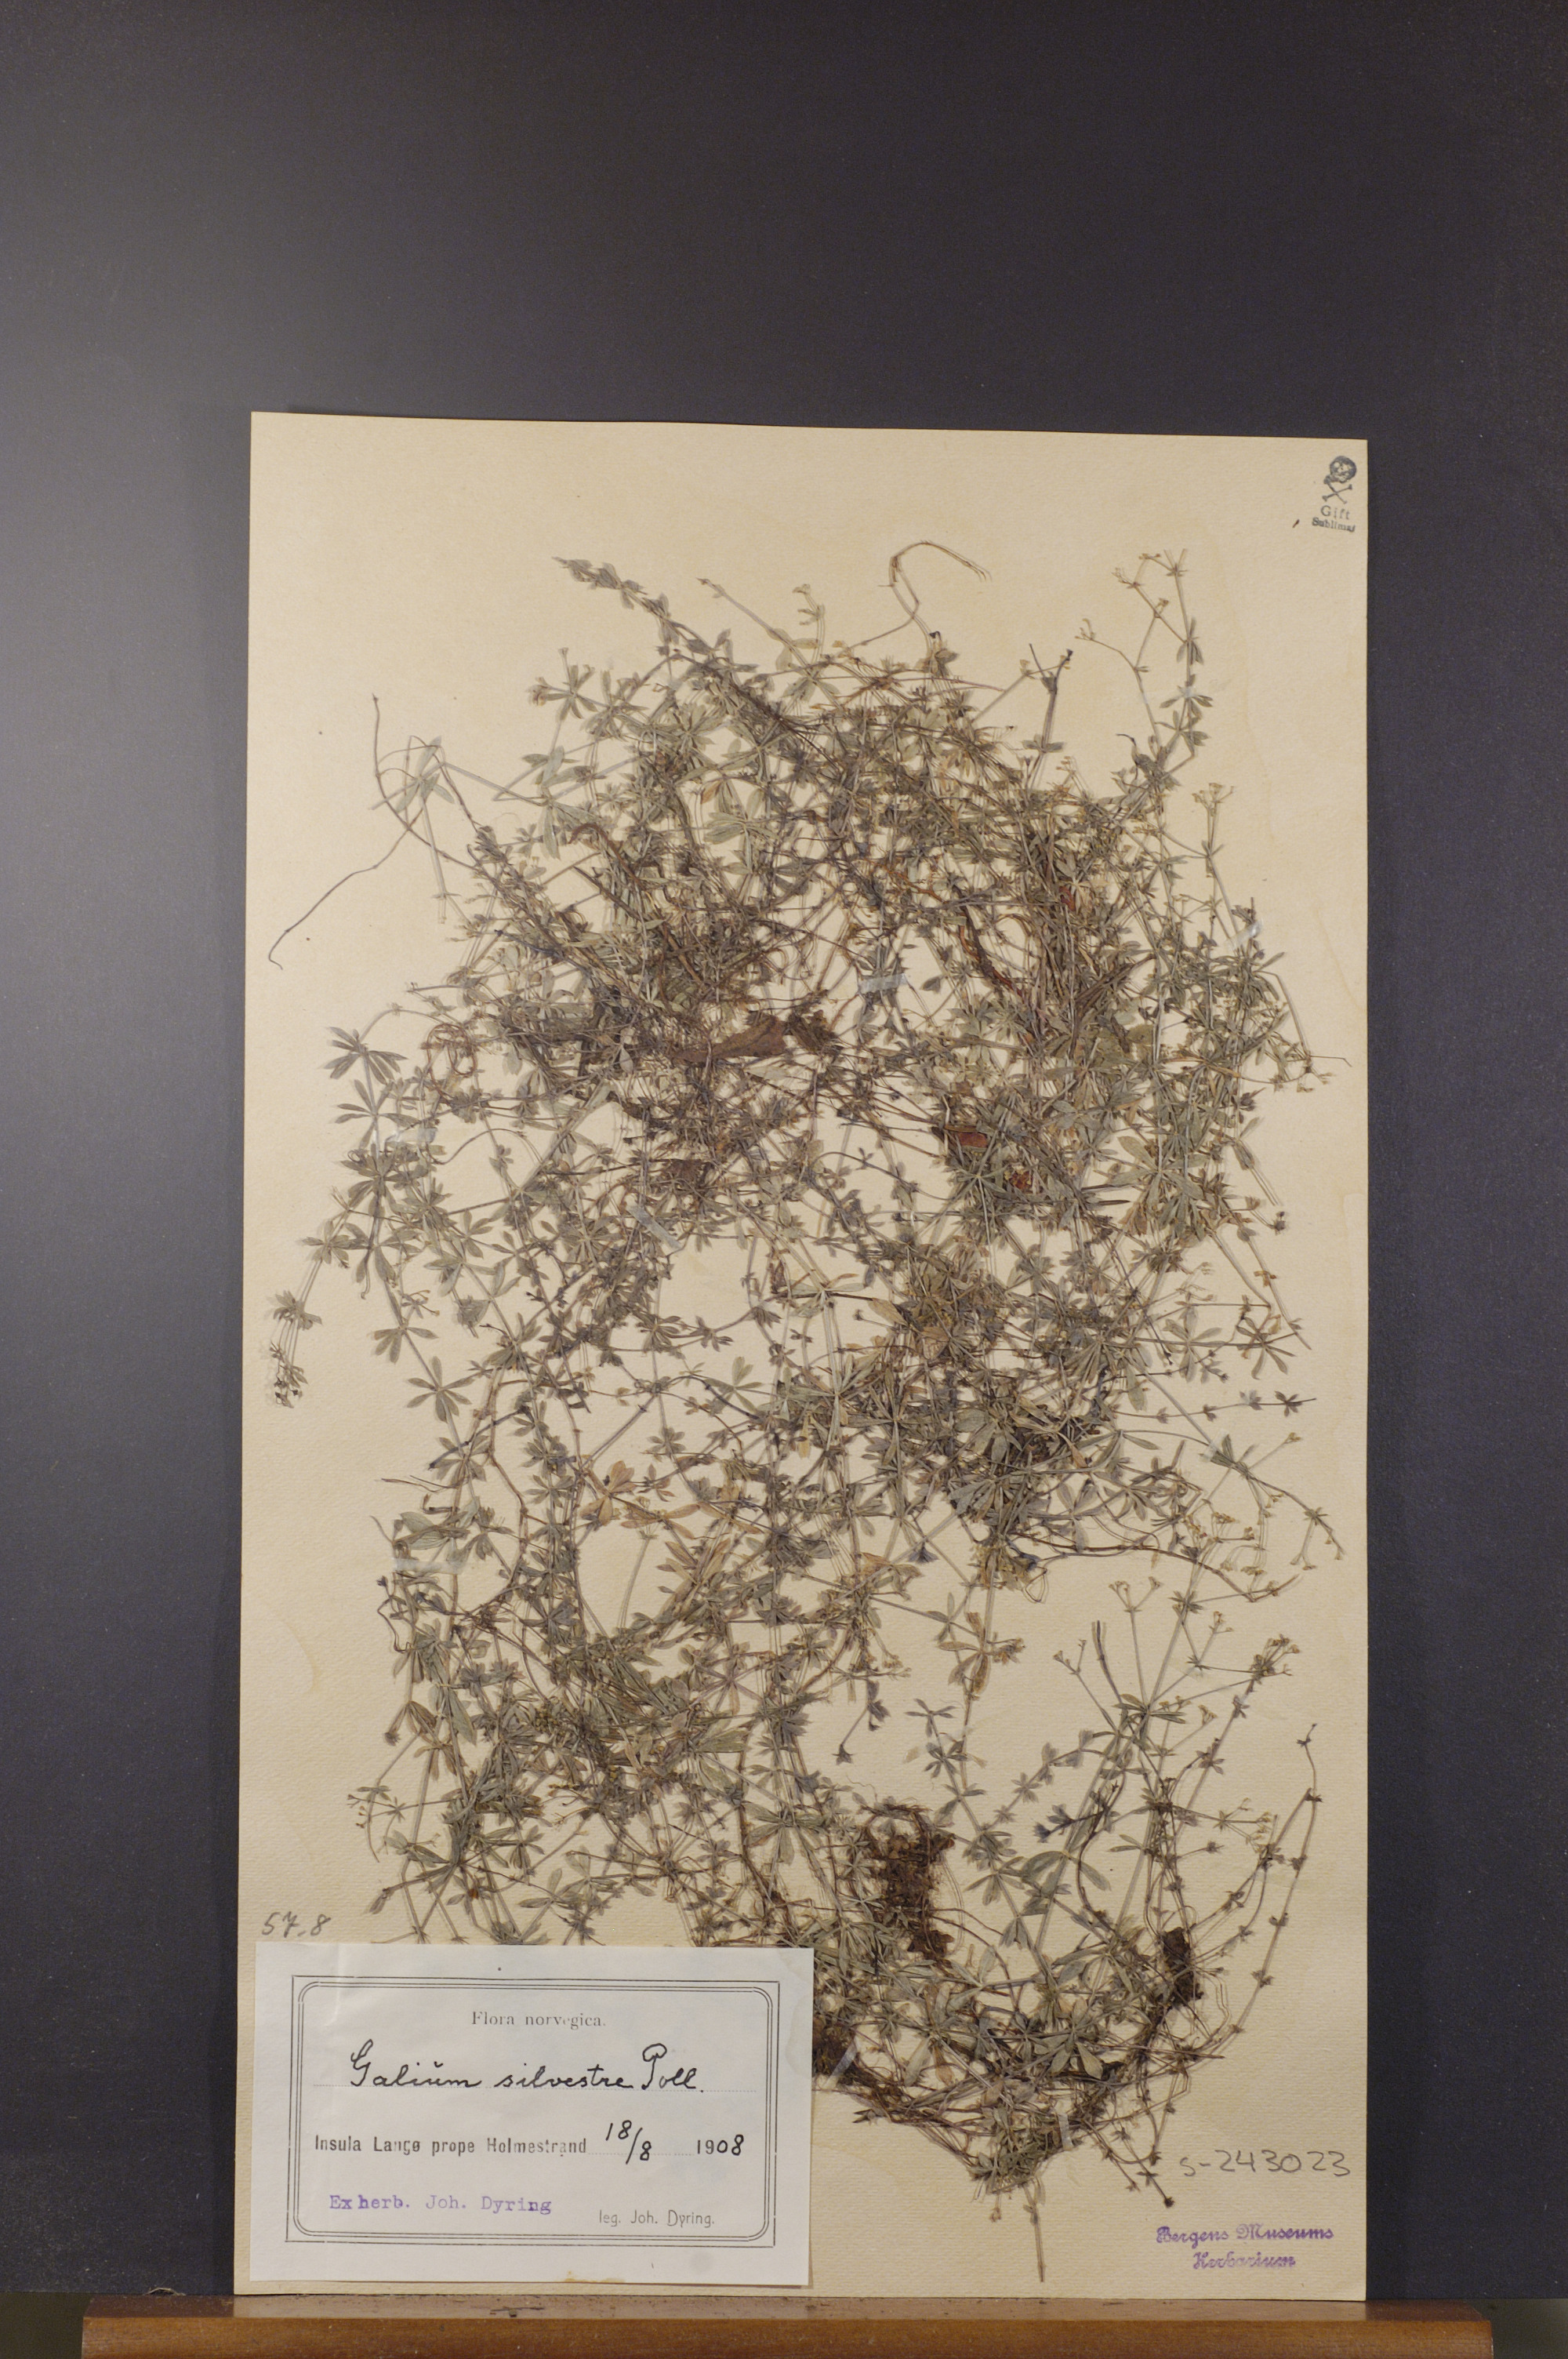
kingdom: Plantae
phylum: Tracheophyta
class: Magnoliopsida
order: Gentianales
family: Rubiaceae
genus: Galium
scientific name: Galium pumilum
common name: Slender bedstraw
